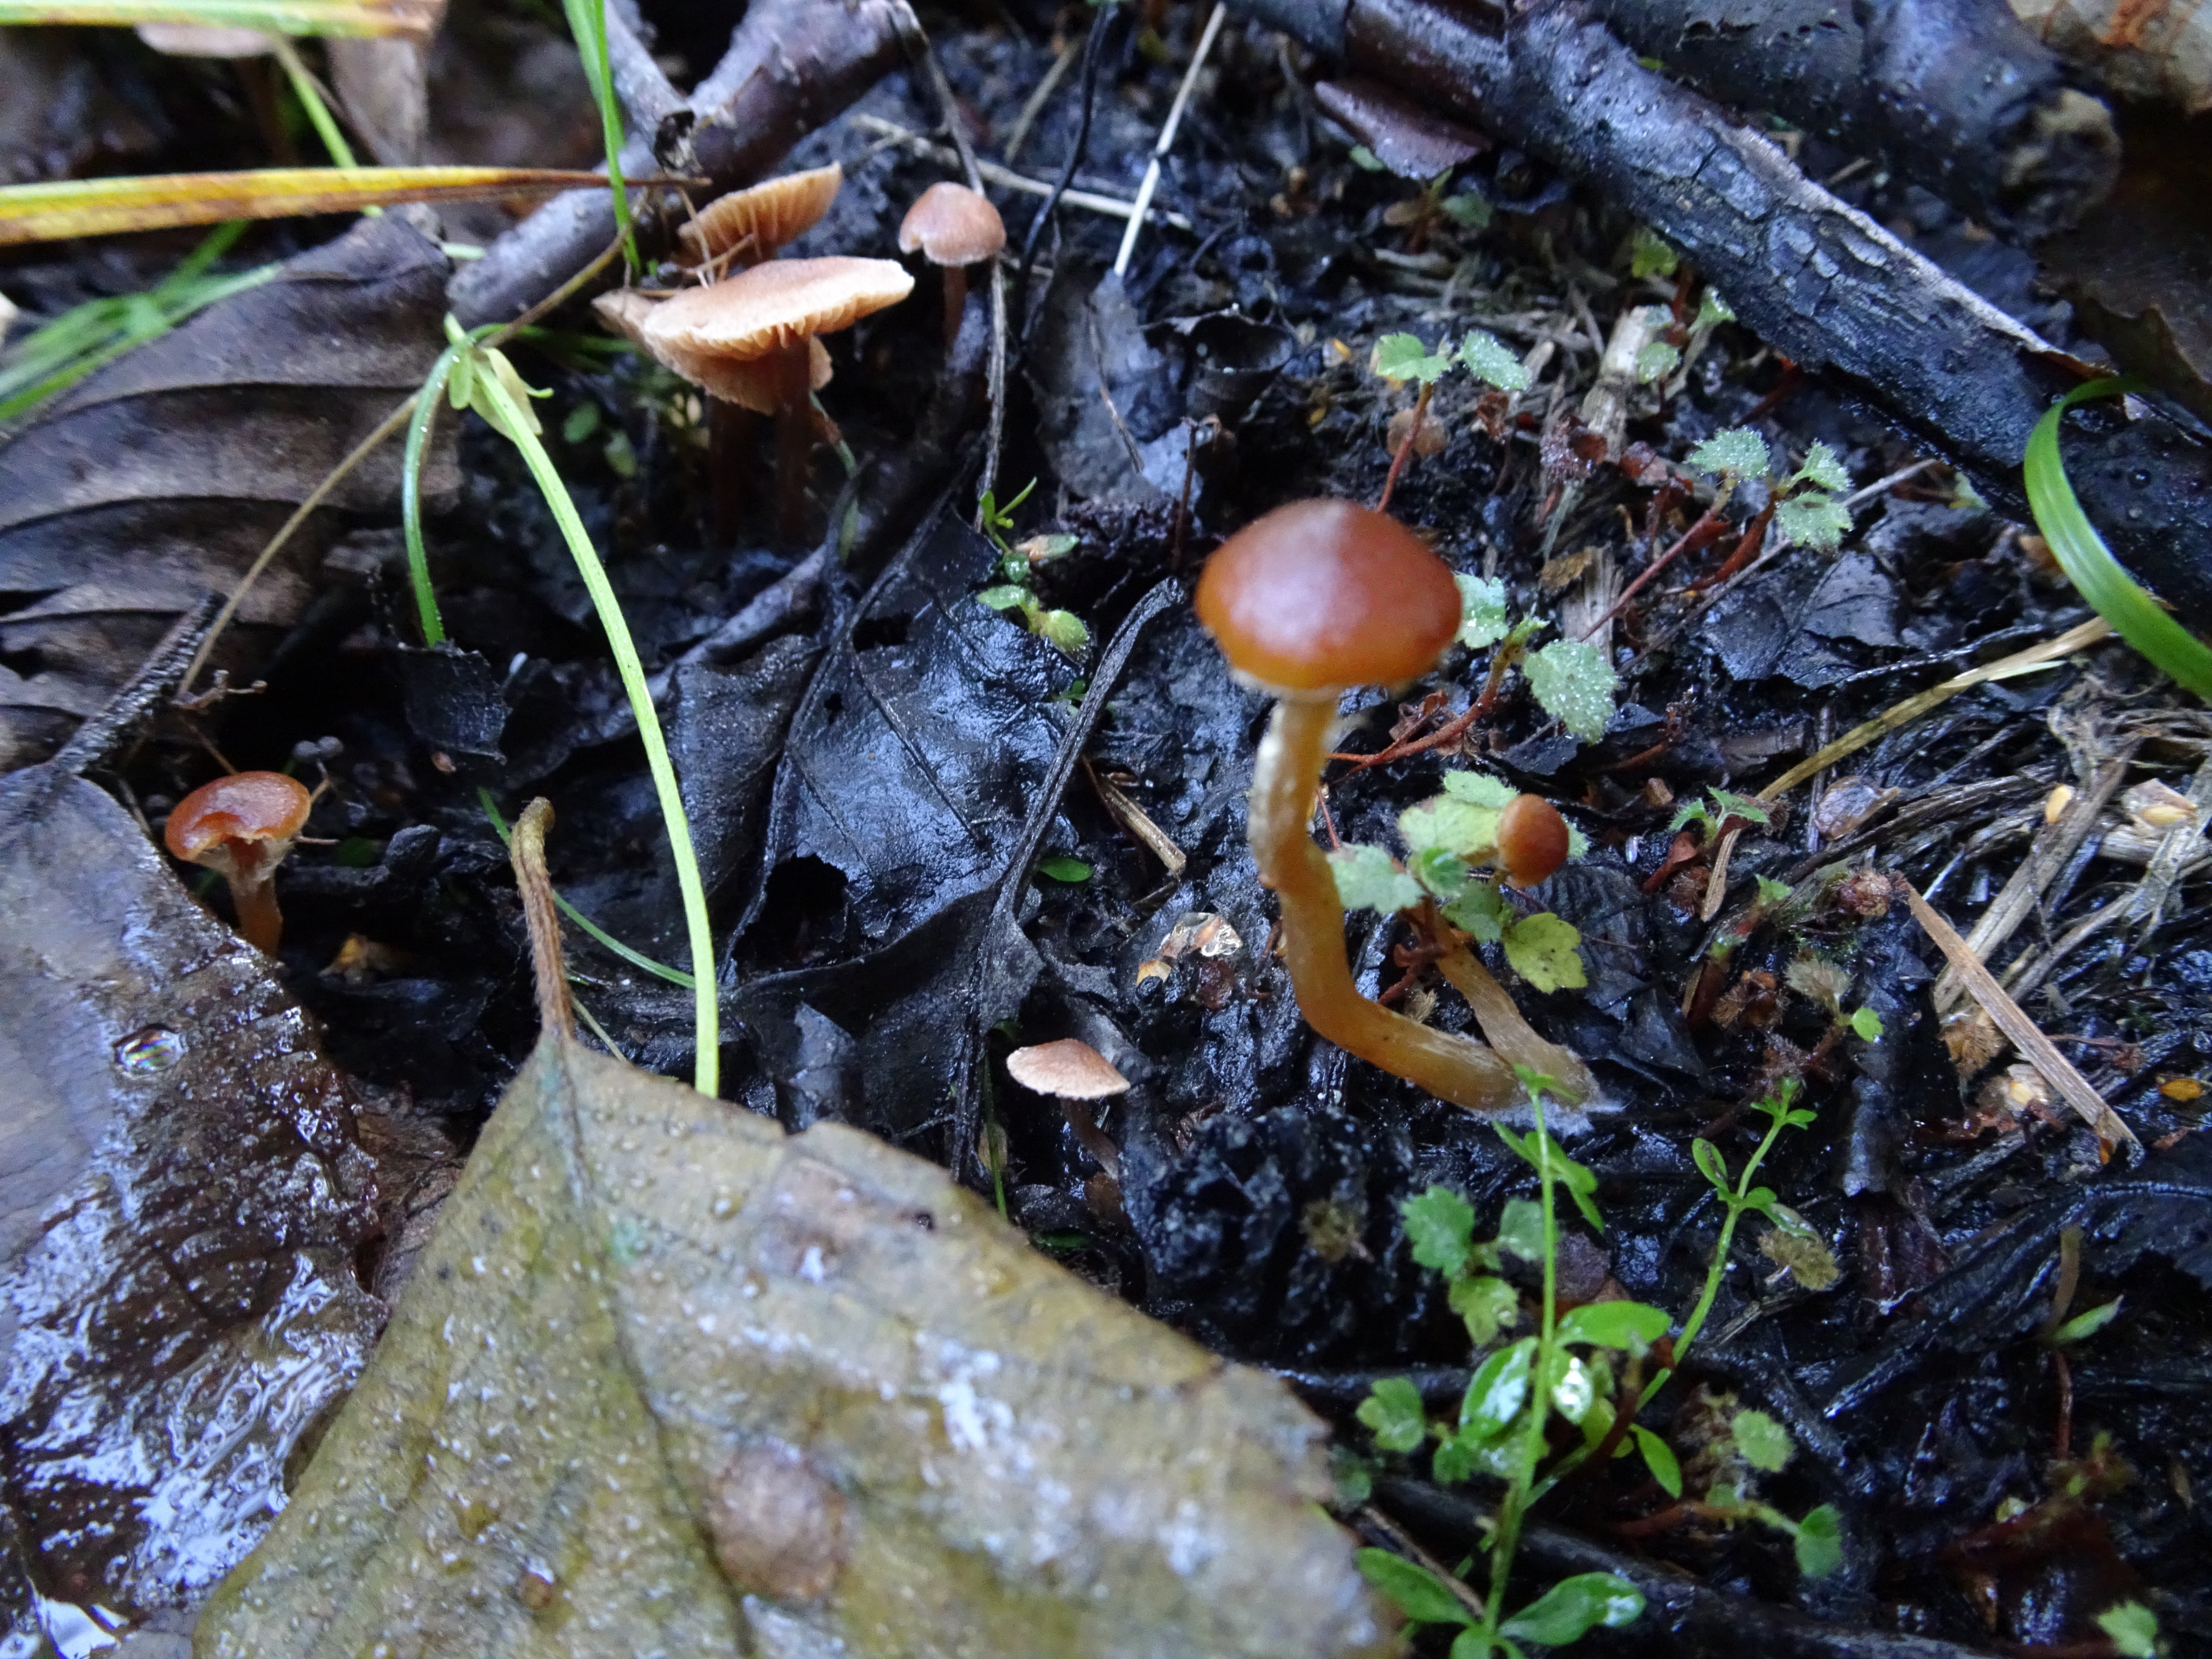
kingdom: Fungi
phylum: Basidiomycota
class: Agaricomycetes
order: Agaricales
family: Hymenogastraceae
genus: Naucoria
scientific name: Naucoria
